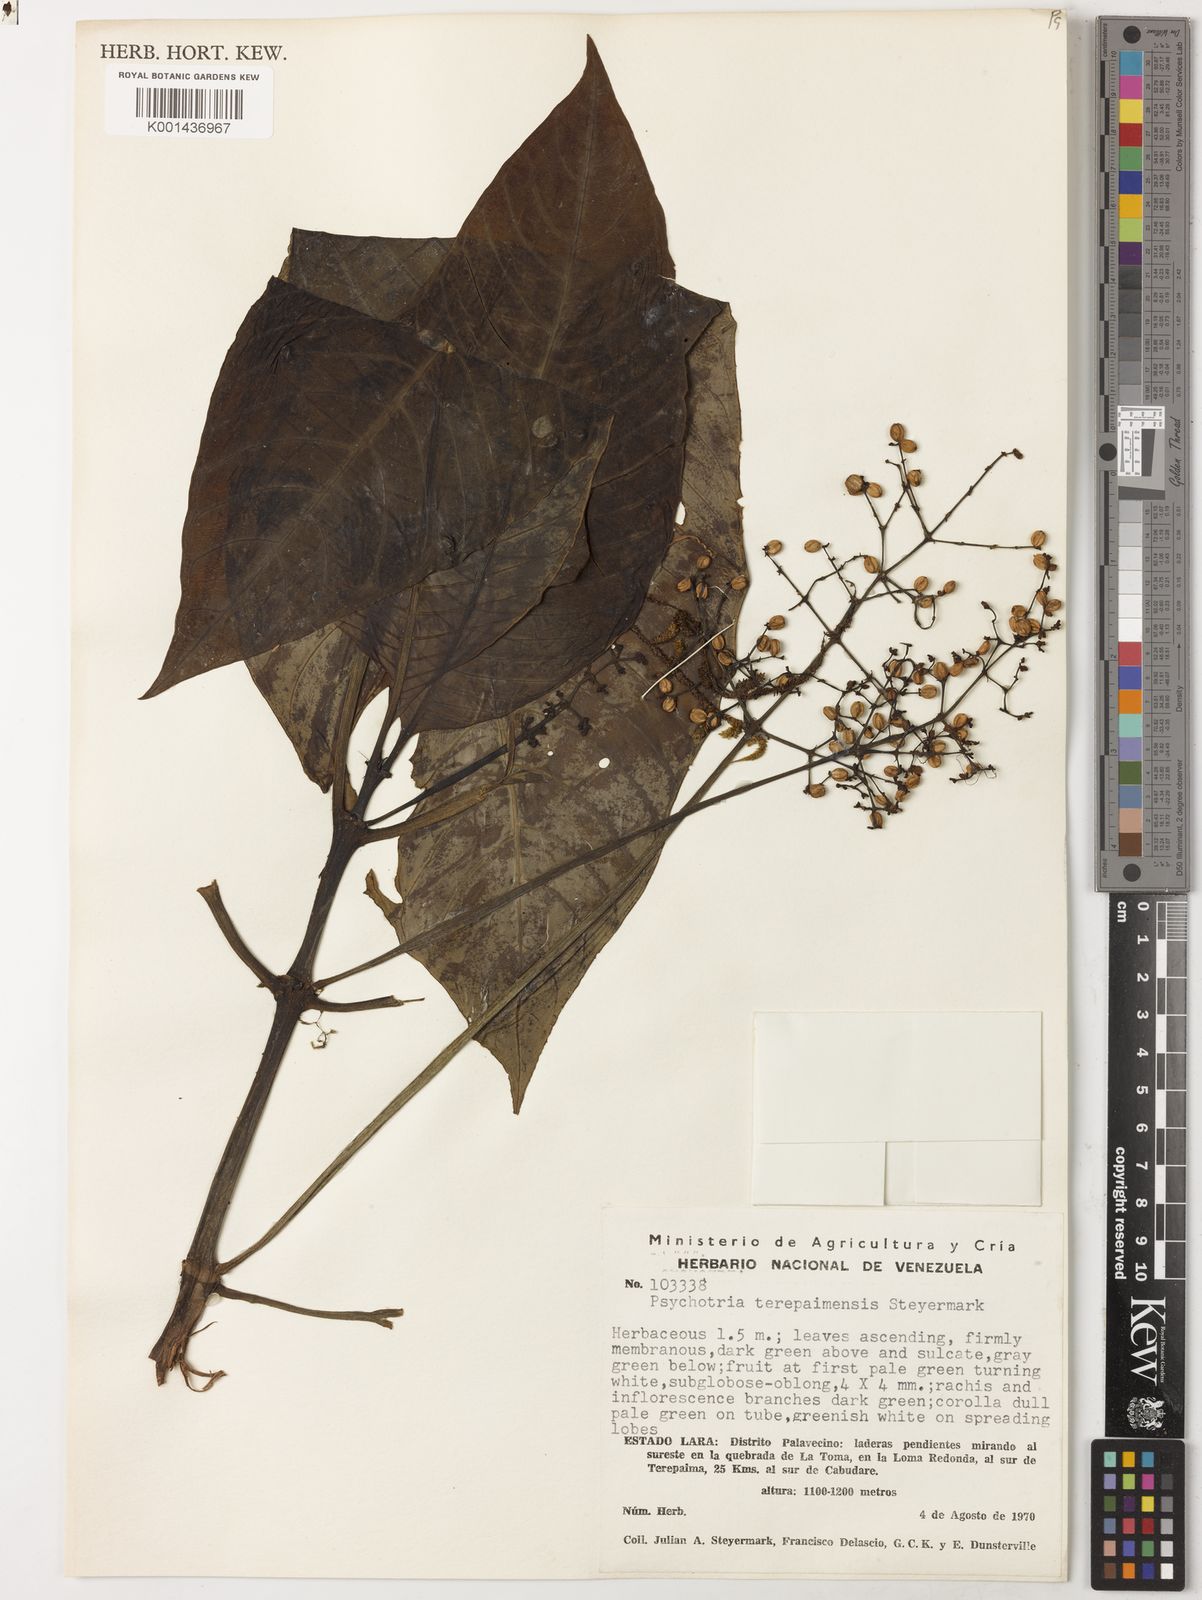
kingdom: Plantae
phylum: Tracheophyta
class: Magnoliopsida
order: Gentianales
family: Rubiaceae
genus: Notopleura
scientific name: Notopleura terepaimensis
